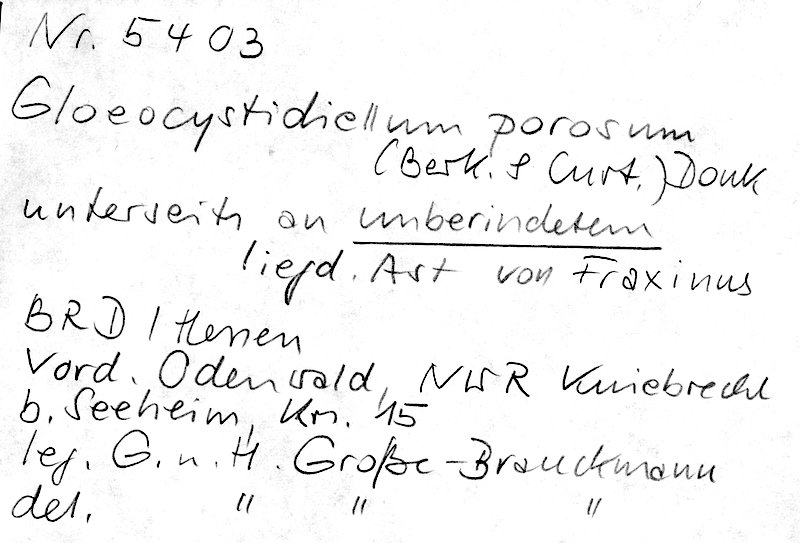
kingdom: Plantae
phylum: Tracheophyta
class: Magnoliopsida
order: Lamiales
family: Oleaceae
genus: Fraxinus
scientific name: Fraxinus
